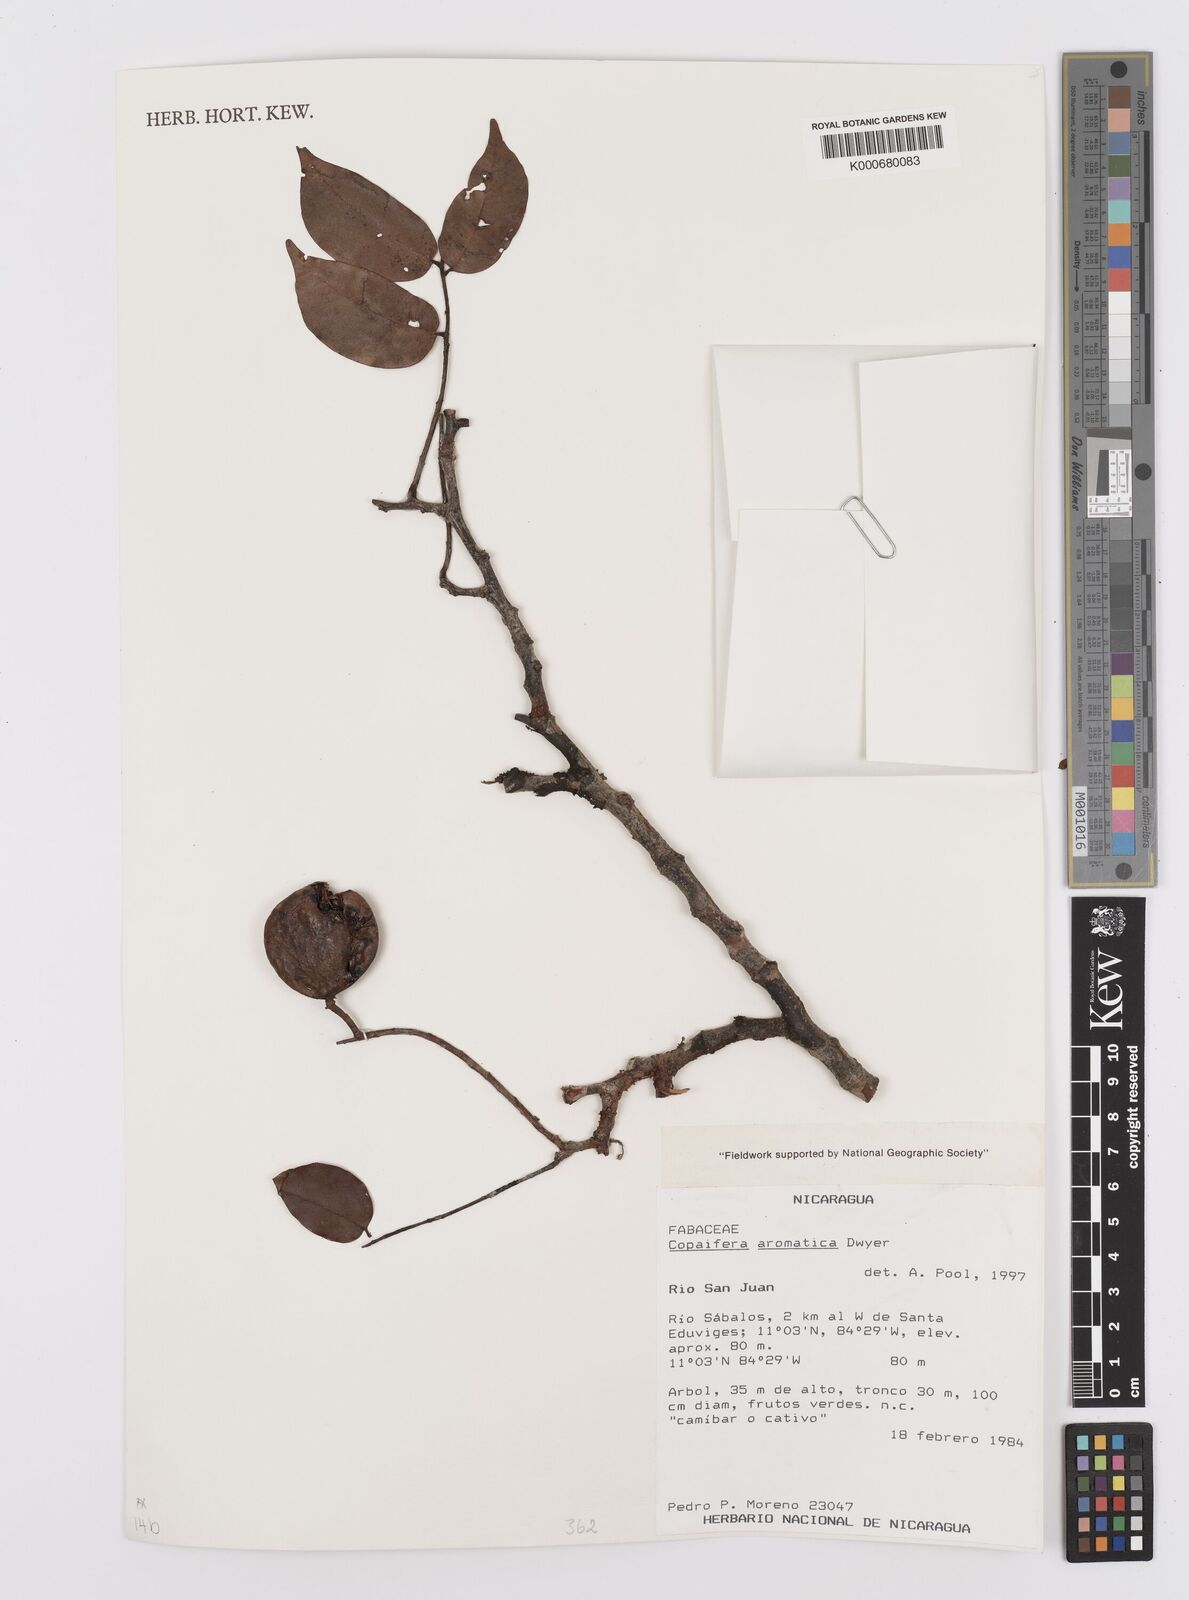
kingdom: Plantae
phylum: Tracheophyta
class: Magnoliopsida
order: Fabales
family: Fabaceae
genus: Copaifera
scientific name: Copaifera aromatica
